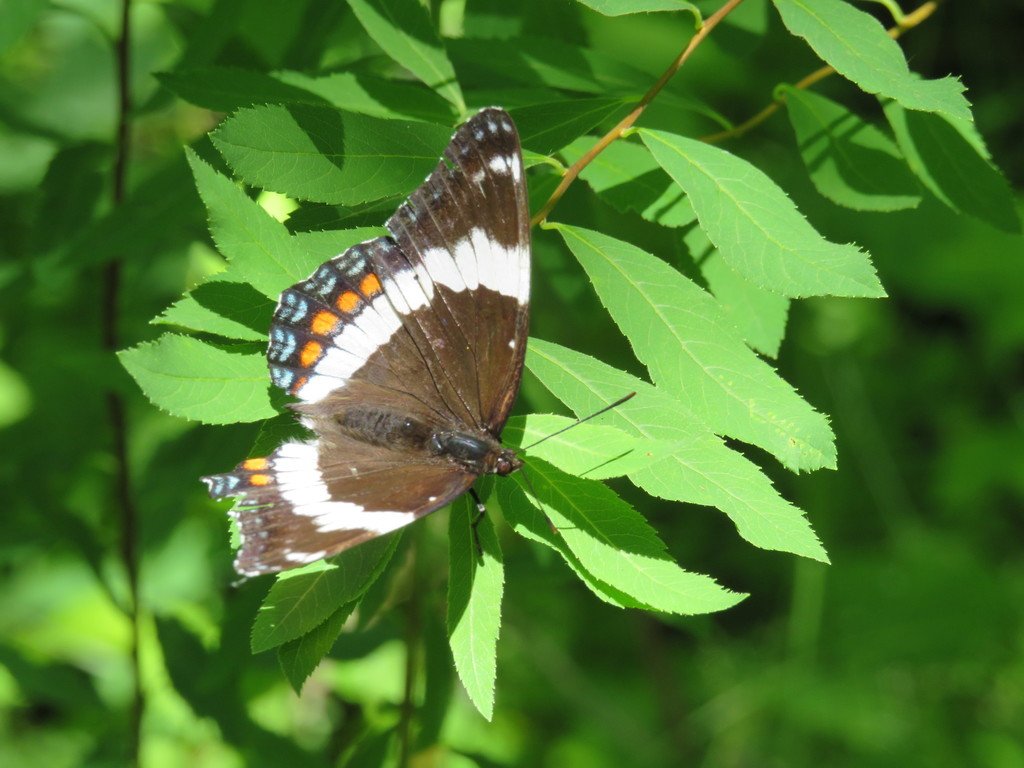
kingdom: Animalia
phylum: Arthropoda
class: Insecta
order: Lepidoptera
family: Nymphalidae
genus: Limenitis
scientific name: Limenitis arthemis
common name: Red-spotted Admiral
